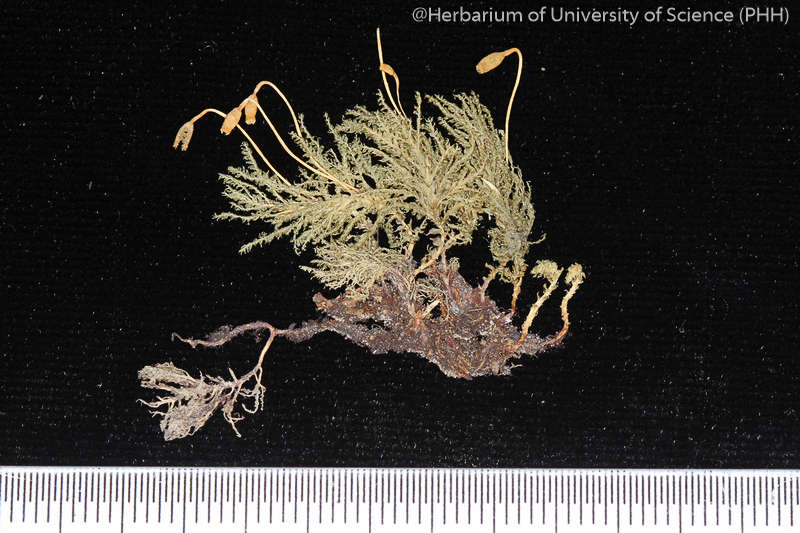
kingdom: Plantae
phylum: Bryophyta
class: Bryopsida
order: Hypopterygiales
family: Hypopterygiaceae
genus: Hypopterygium
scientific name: Hypopterygium
